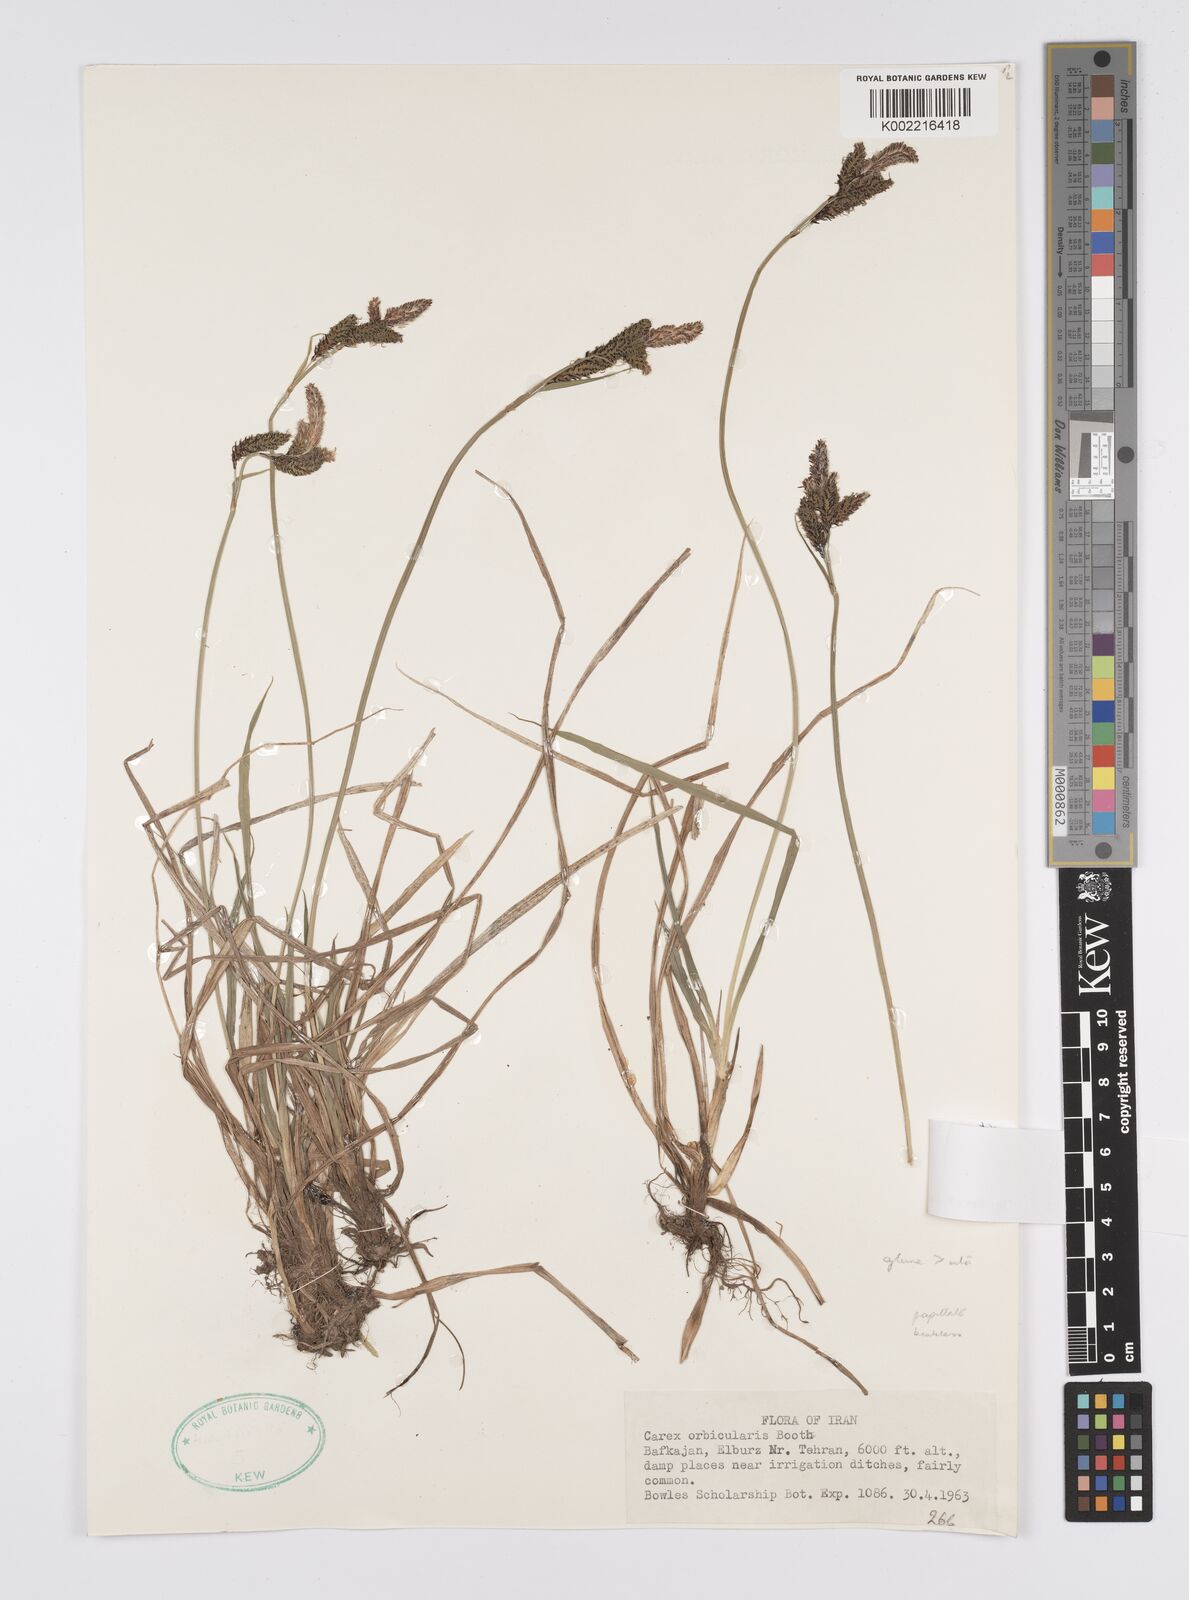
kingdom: Plantae
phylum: Tracheophyta
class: Liliopsida
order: Poales
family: Cyperaceae
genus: Carex
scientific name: Carex orbicularis
